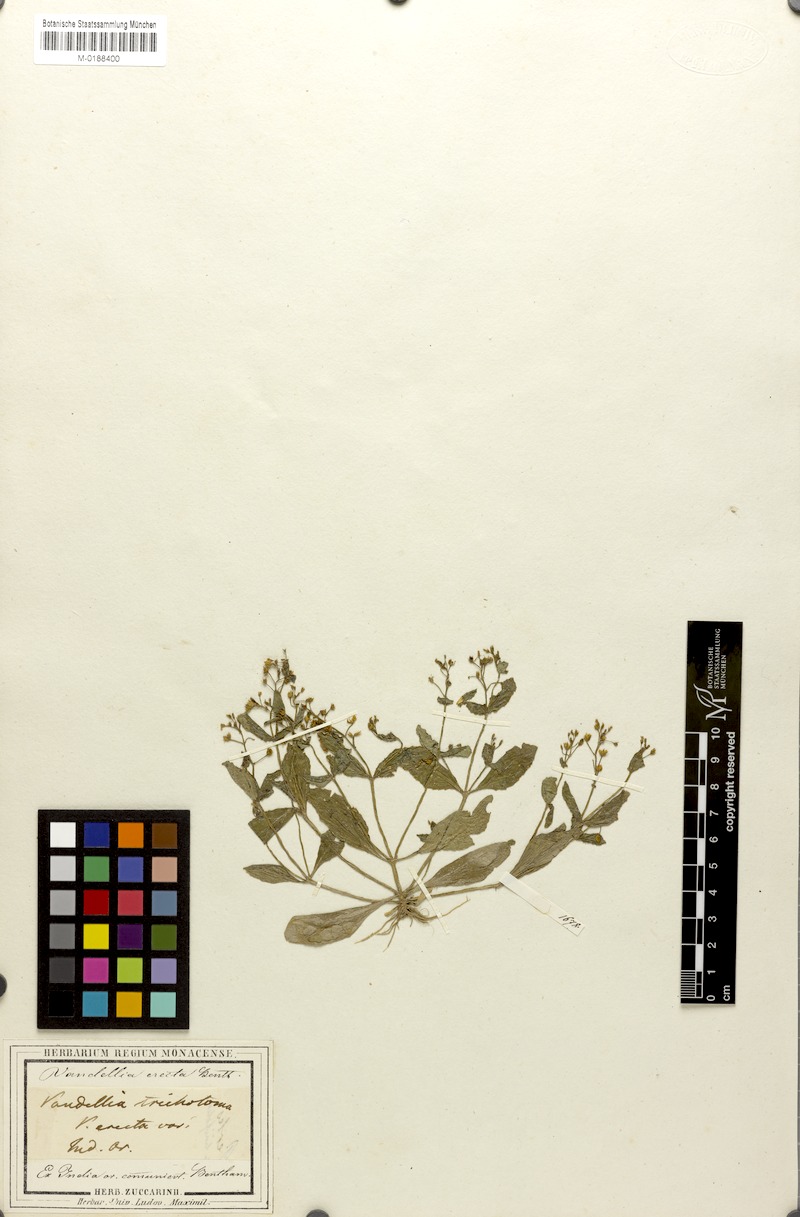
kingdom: Plantae
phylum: Tracheophyta
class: Magnoliopsida
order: Lamiales
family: Linderniaceae
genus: Lindernia
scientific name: Lindernia procumbens
